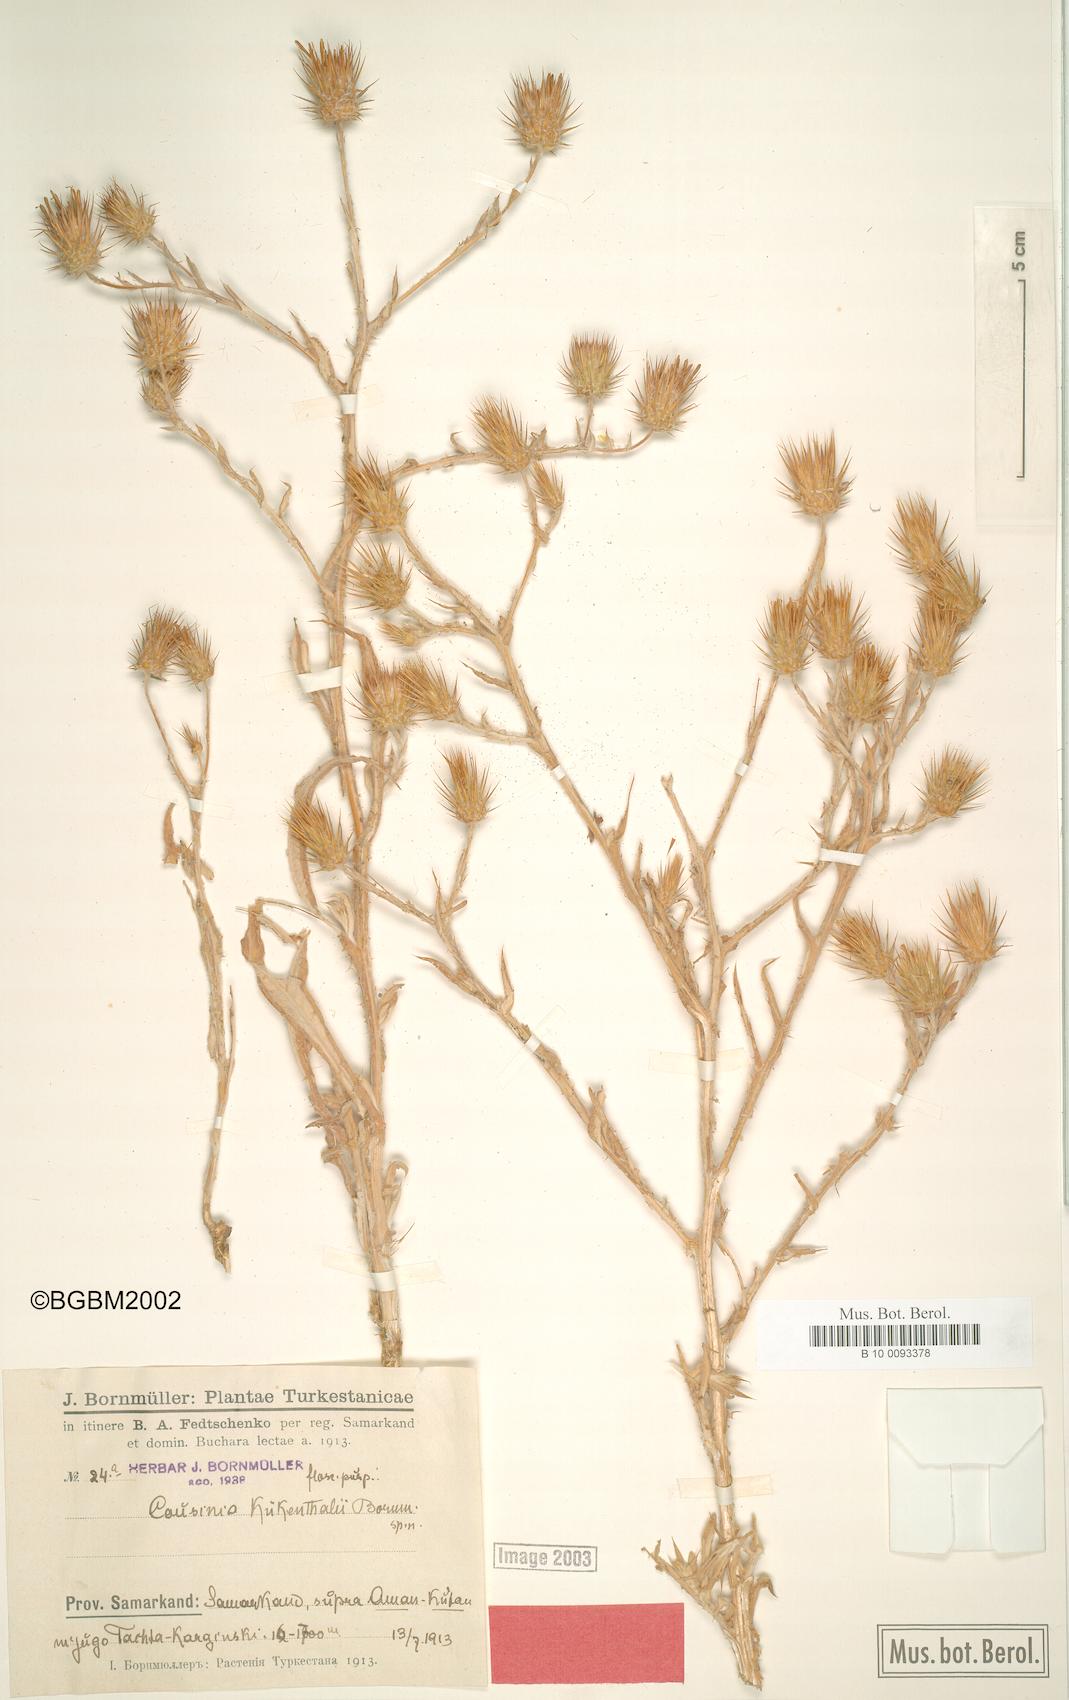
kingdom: Plantae
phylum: Tracheophyta
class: Magnoliopsida
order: Asterales
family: Asteraceae
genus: Cousinia
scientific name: Cousinia kuekenthalii
